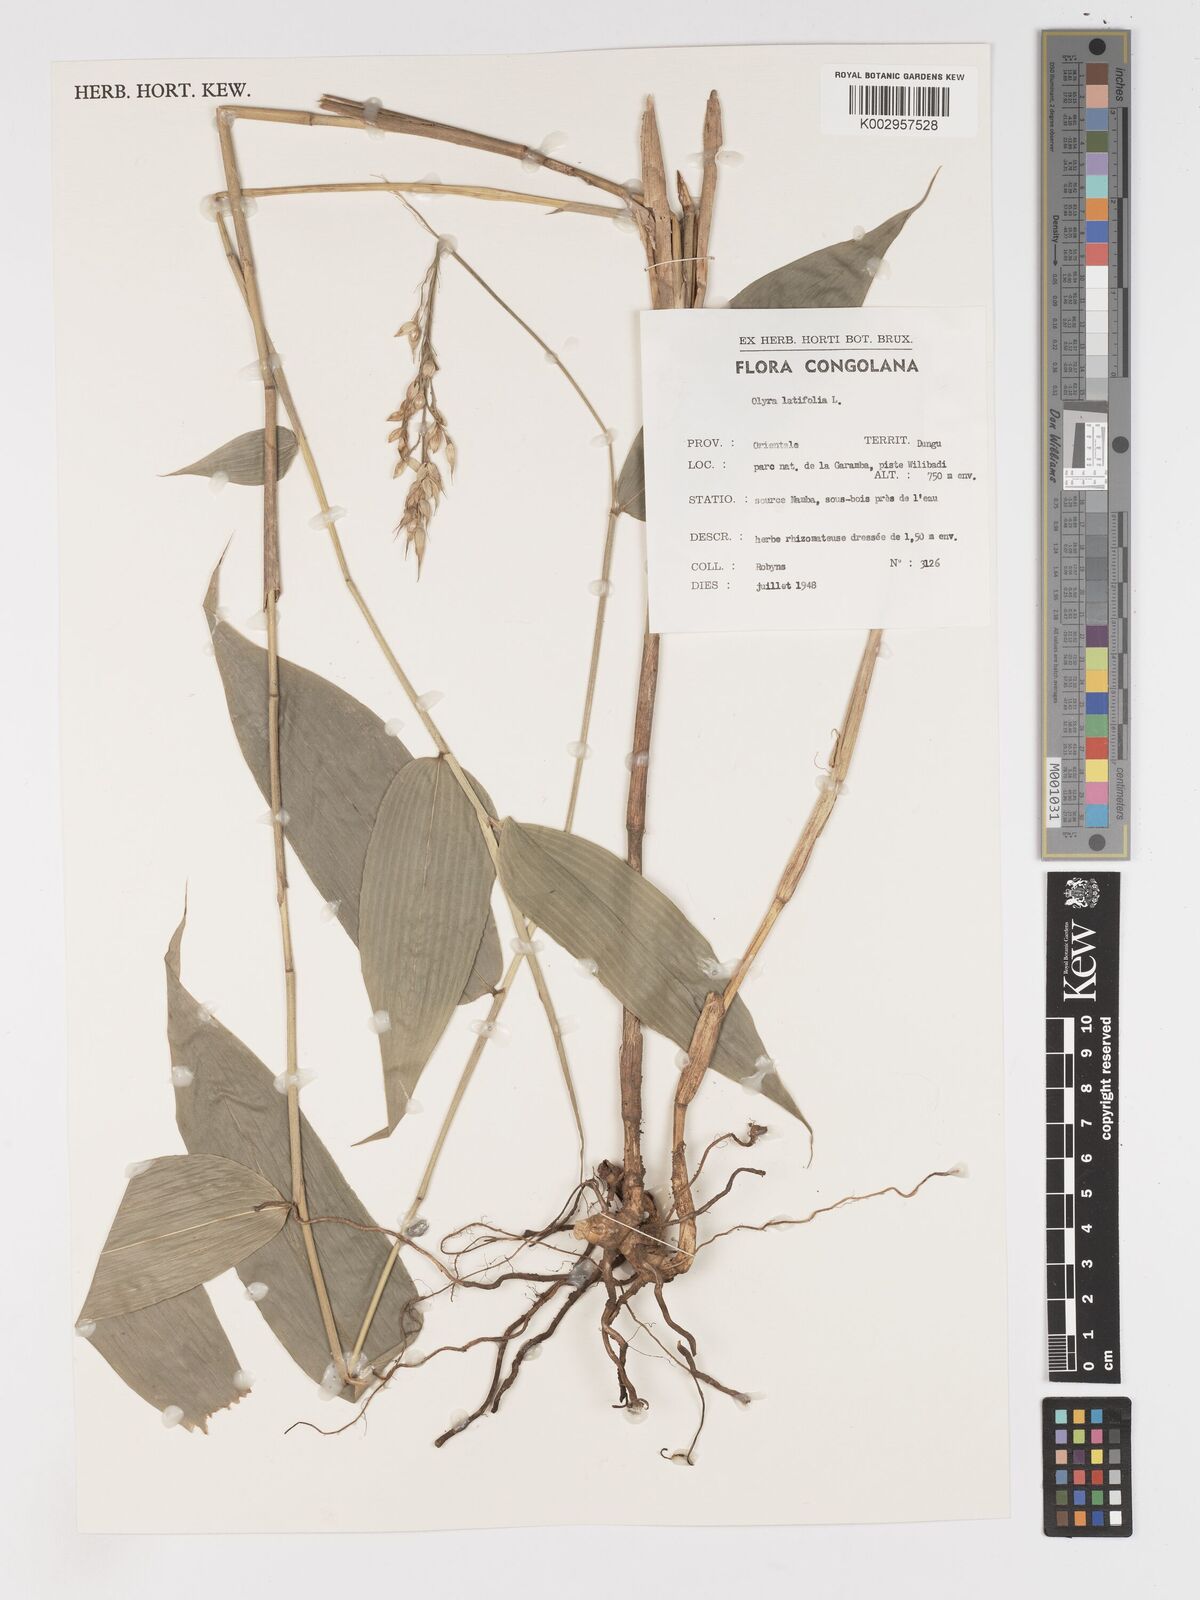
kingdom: Plantae
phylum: Tracheophyta
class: Liliopsida
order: Poales
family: Poaceae
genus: Olyra
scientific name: Olyra latifolia
